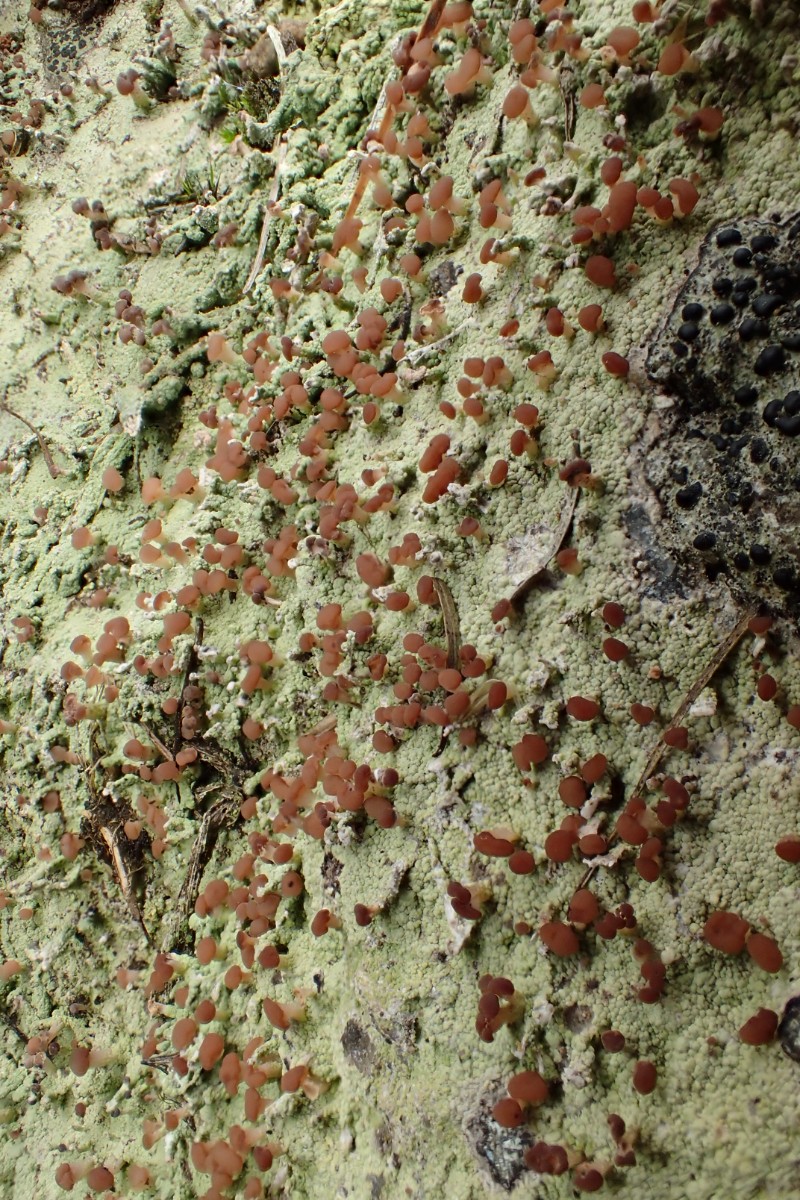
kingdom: Fungi
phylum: Ascomycota
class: Lecanoromycetes
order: Baeomycetales
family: Baeomycetaceae
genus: Baeomyces
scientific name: Baeomyces rufus
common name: rødbrun svampelav
